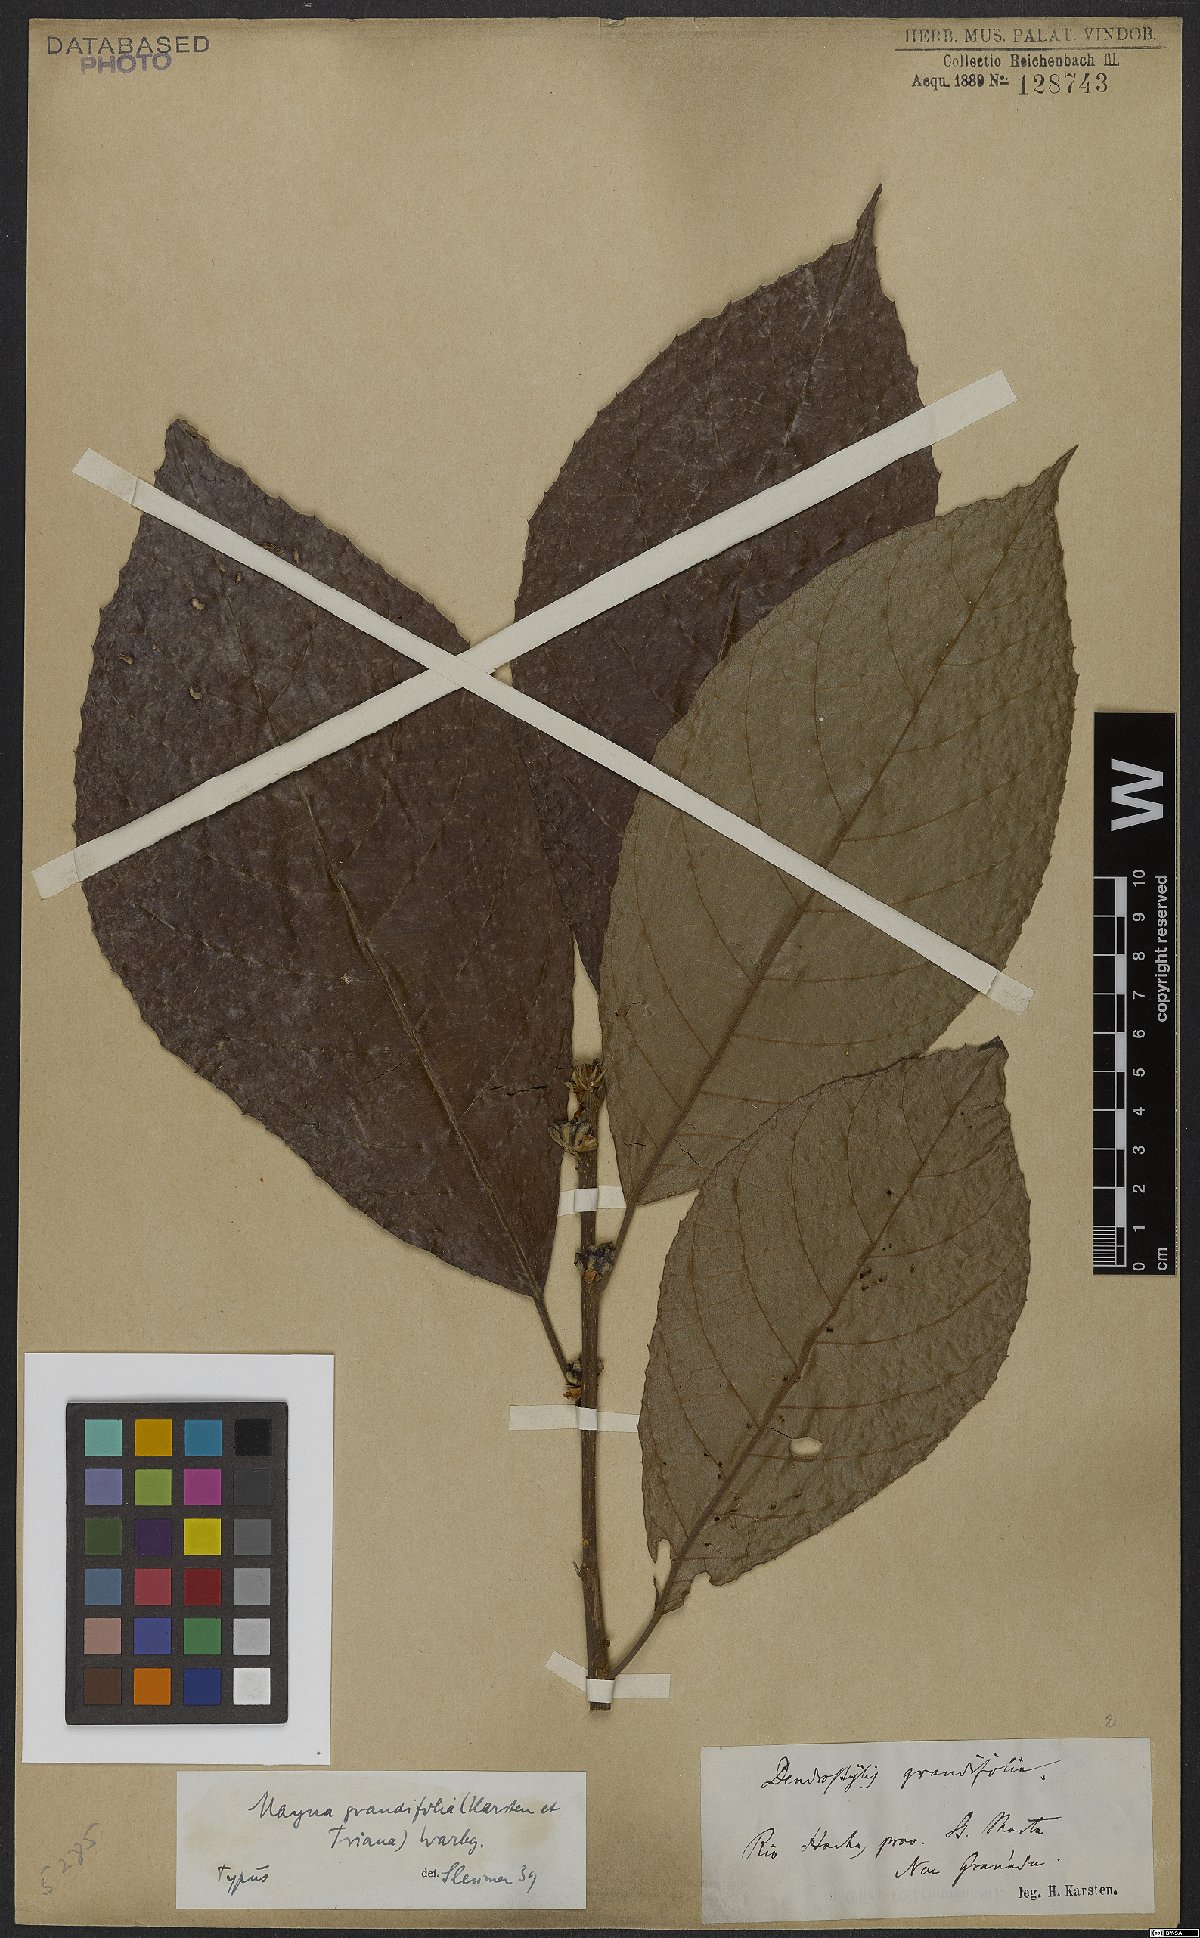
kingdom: Plantae
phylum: Tracheophyta
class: Magnoliopsida
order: Malpighiales
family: Achariaceae
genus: Mayna
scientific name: Mayna grandifolia
